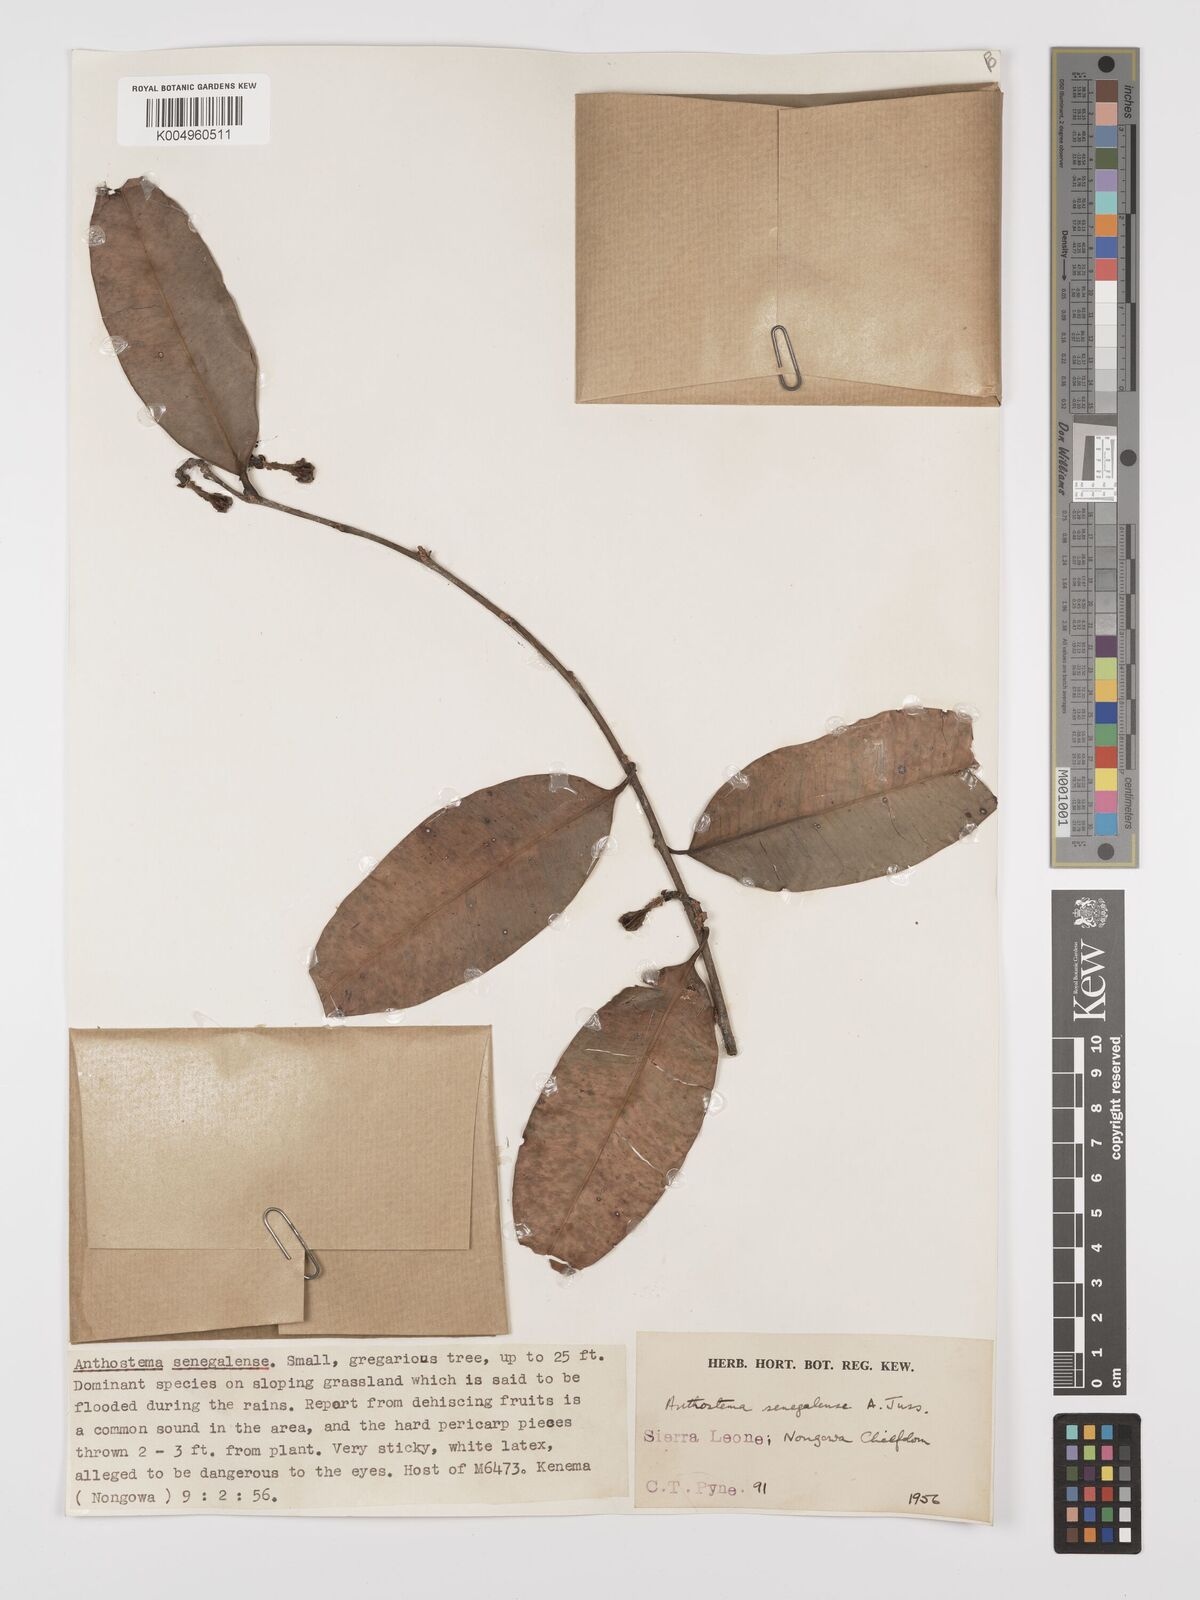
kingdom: Plantae
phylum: Tracheophyta
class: Magnoliopsida
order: Malpighiales
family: Euphorbiaceae
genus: Anthostema
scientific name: Anthostema senegalense
